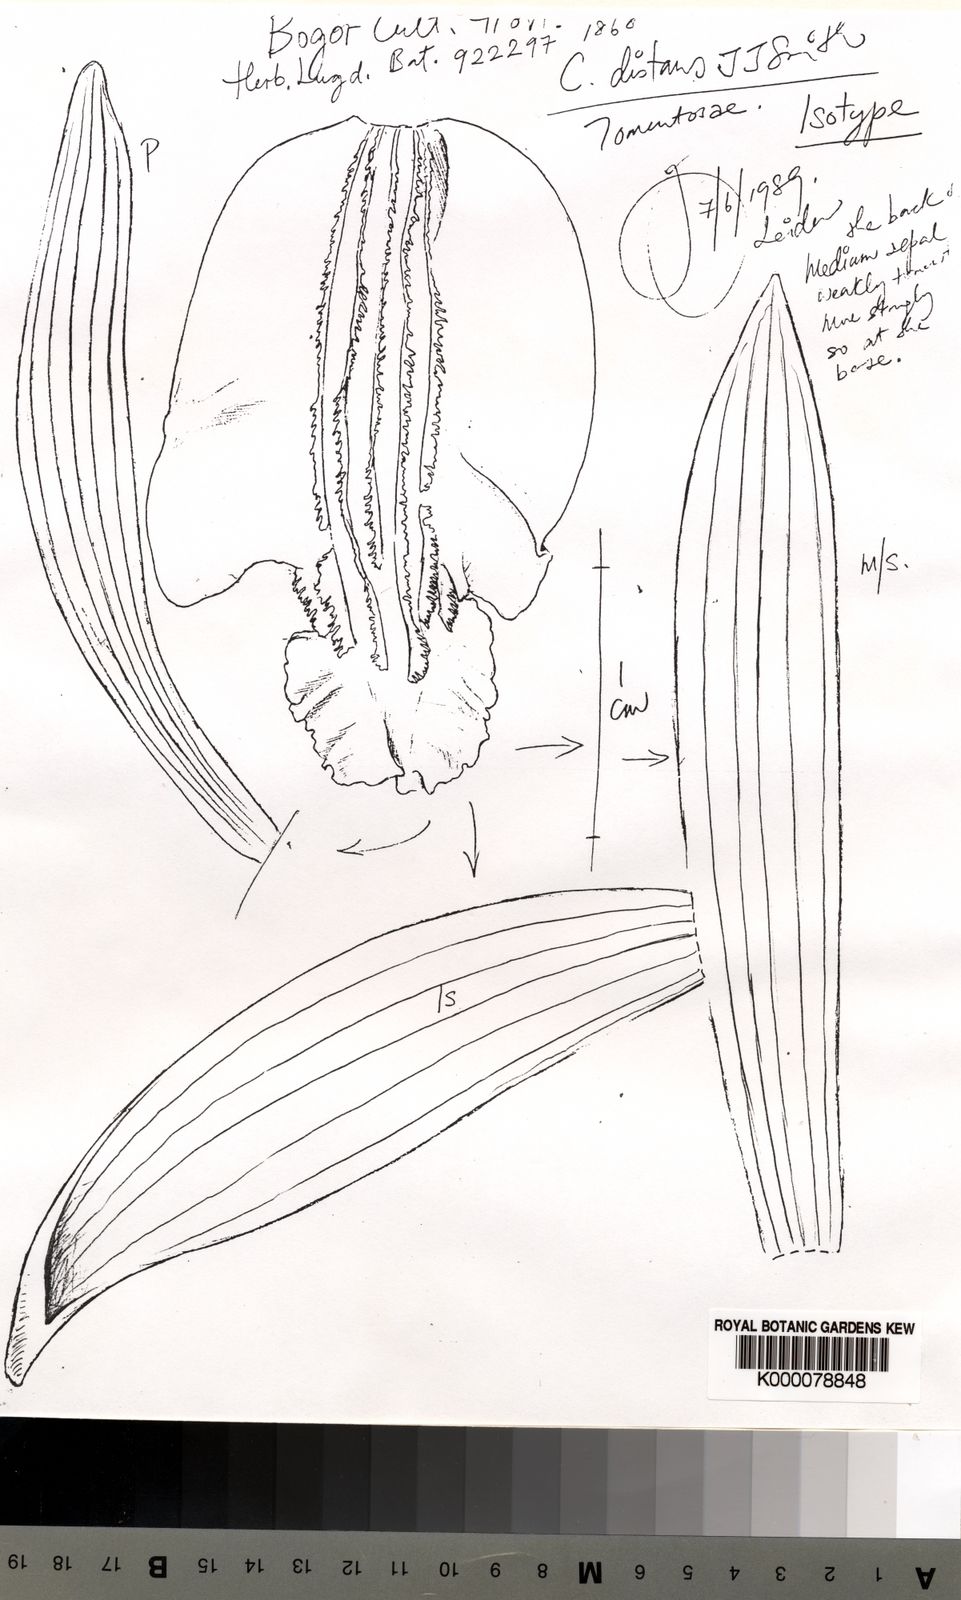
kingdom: Plantae
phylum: Tracheophyta
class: Liliopsida
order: Asparagales
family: Orchidaceae
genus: Coelogyne
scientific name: Coelogyne distans
